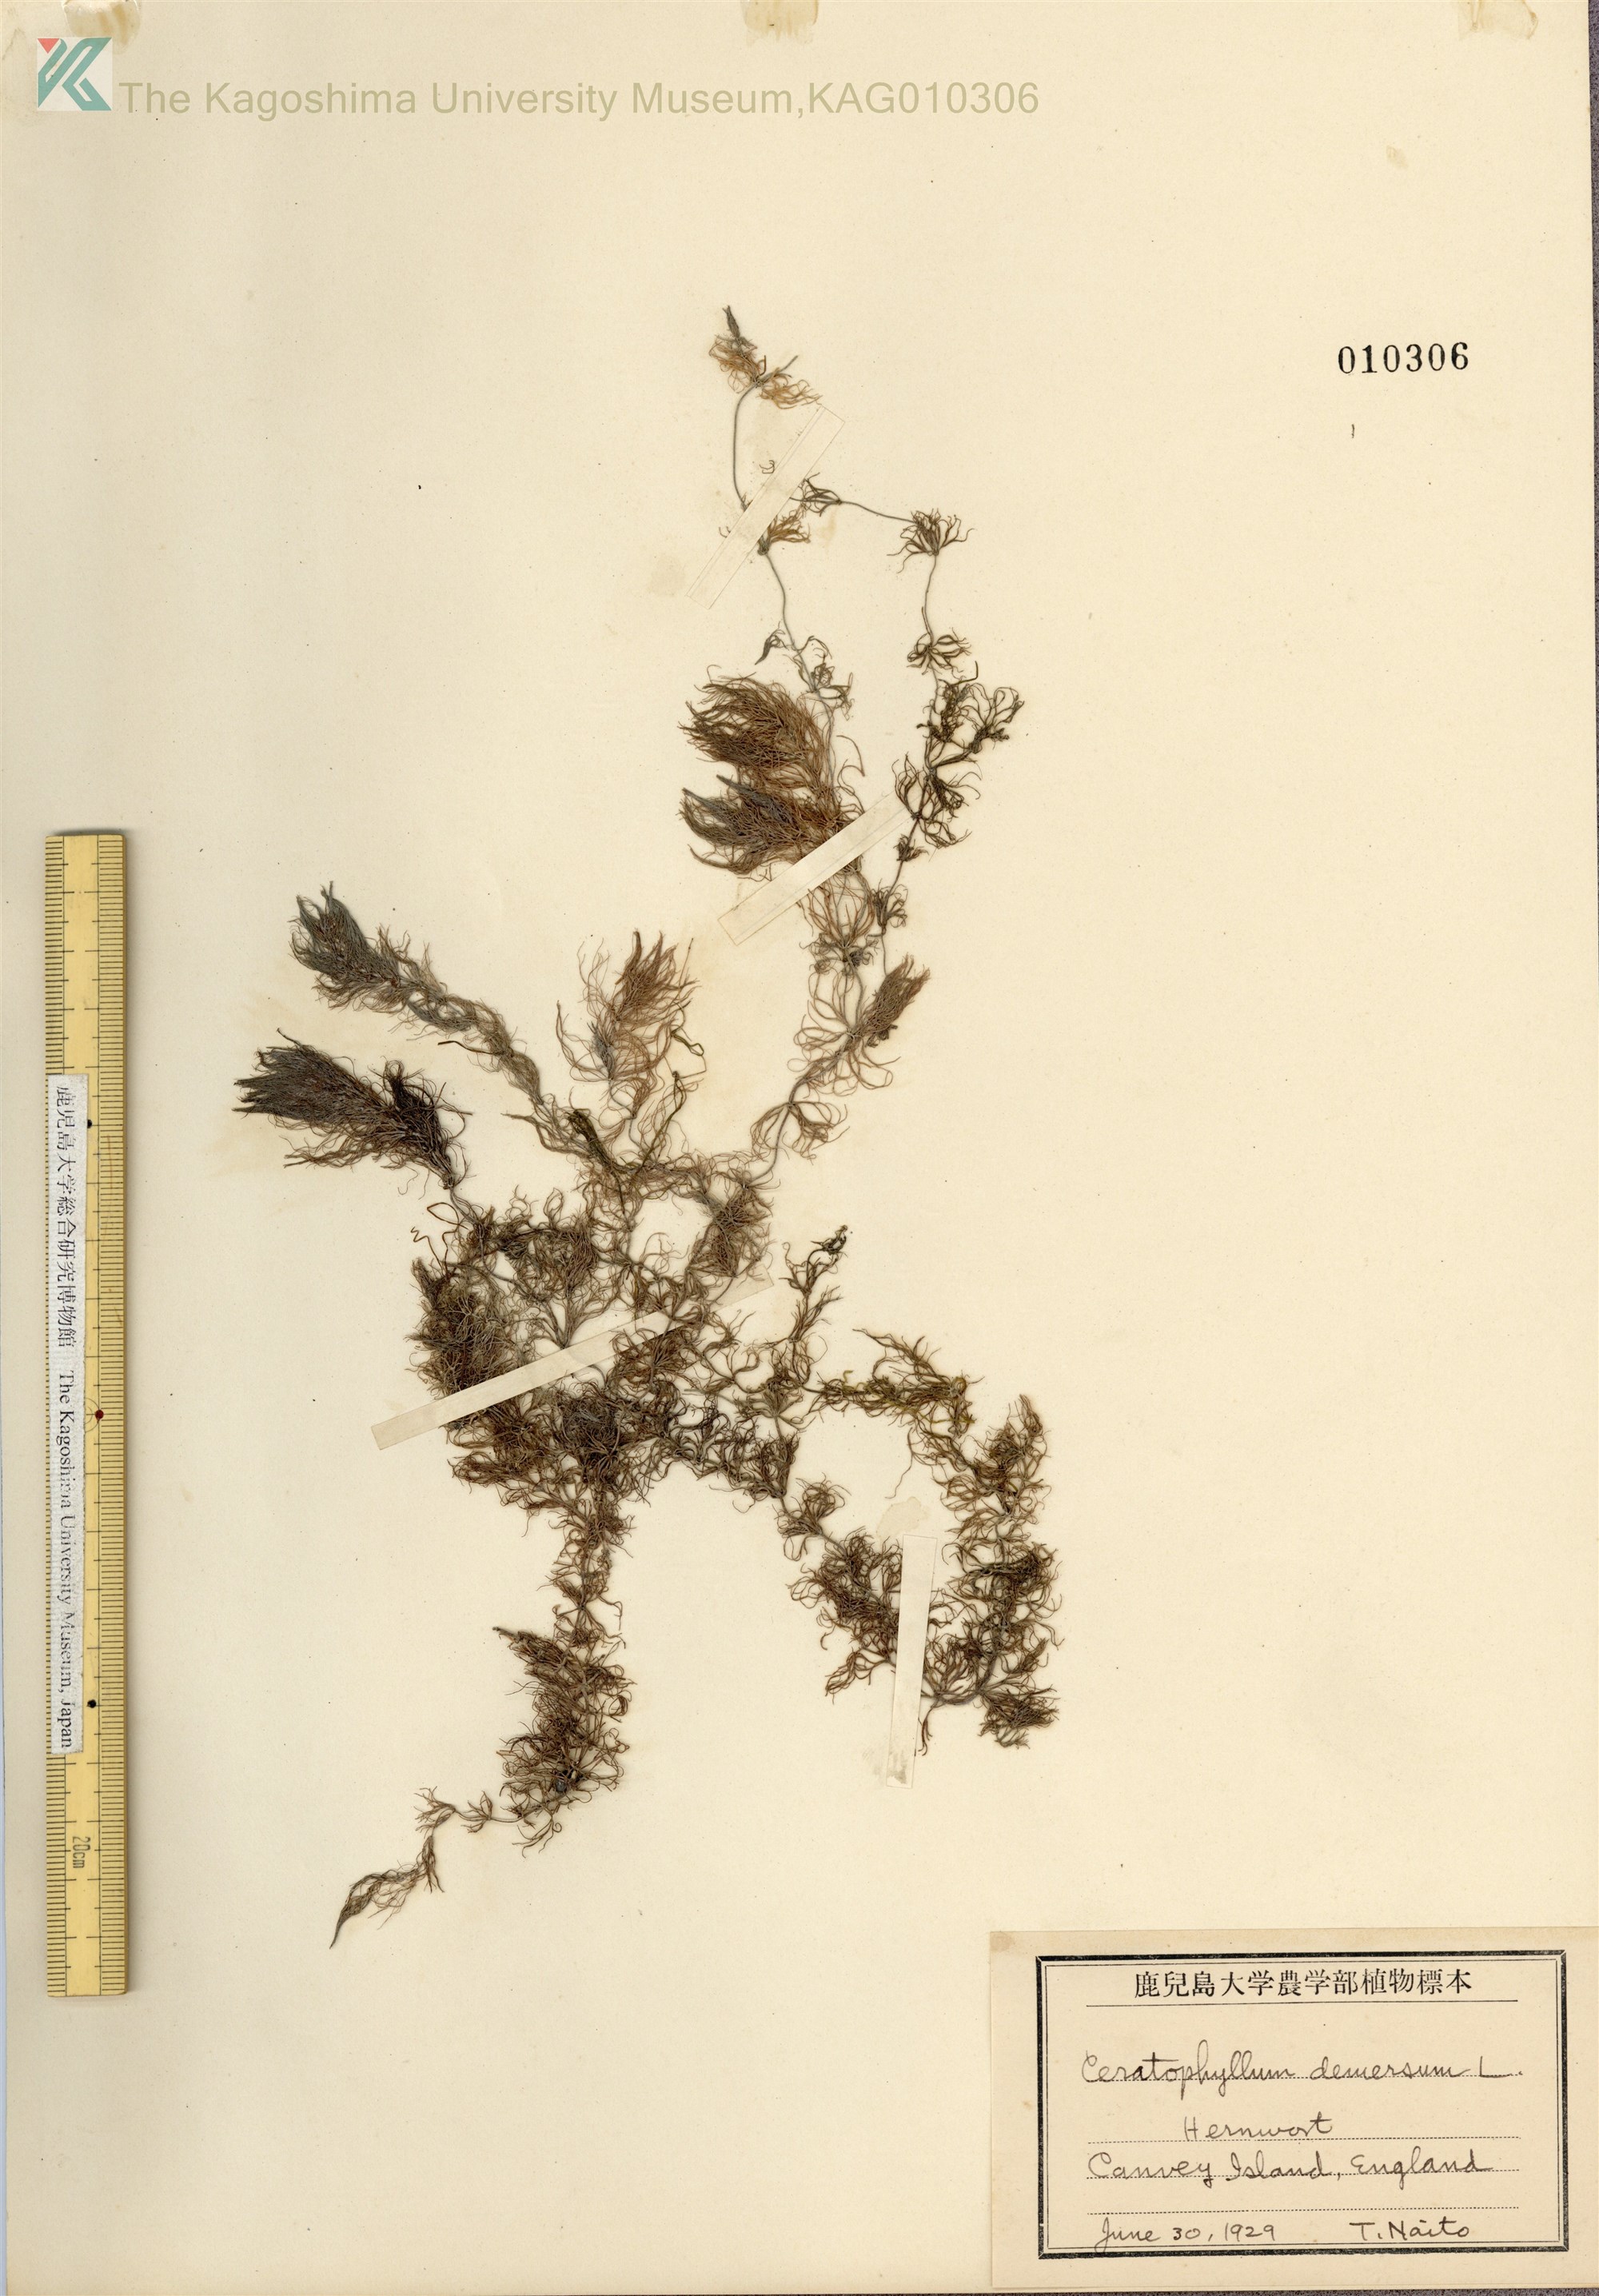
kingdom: Plantae
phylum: Tracheophyta
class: Magnoliopsida
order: Ceratophyllales
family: Ceratophyllaceae
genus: Ceratophyllum
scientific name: Ceratophyllum demersum
